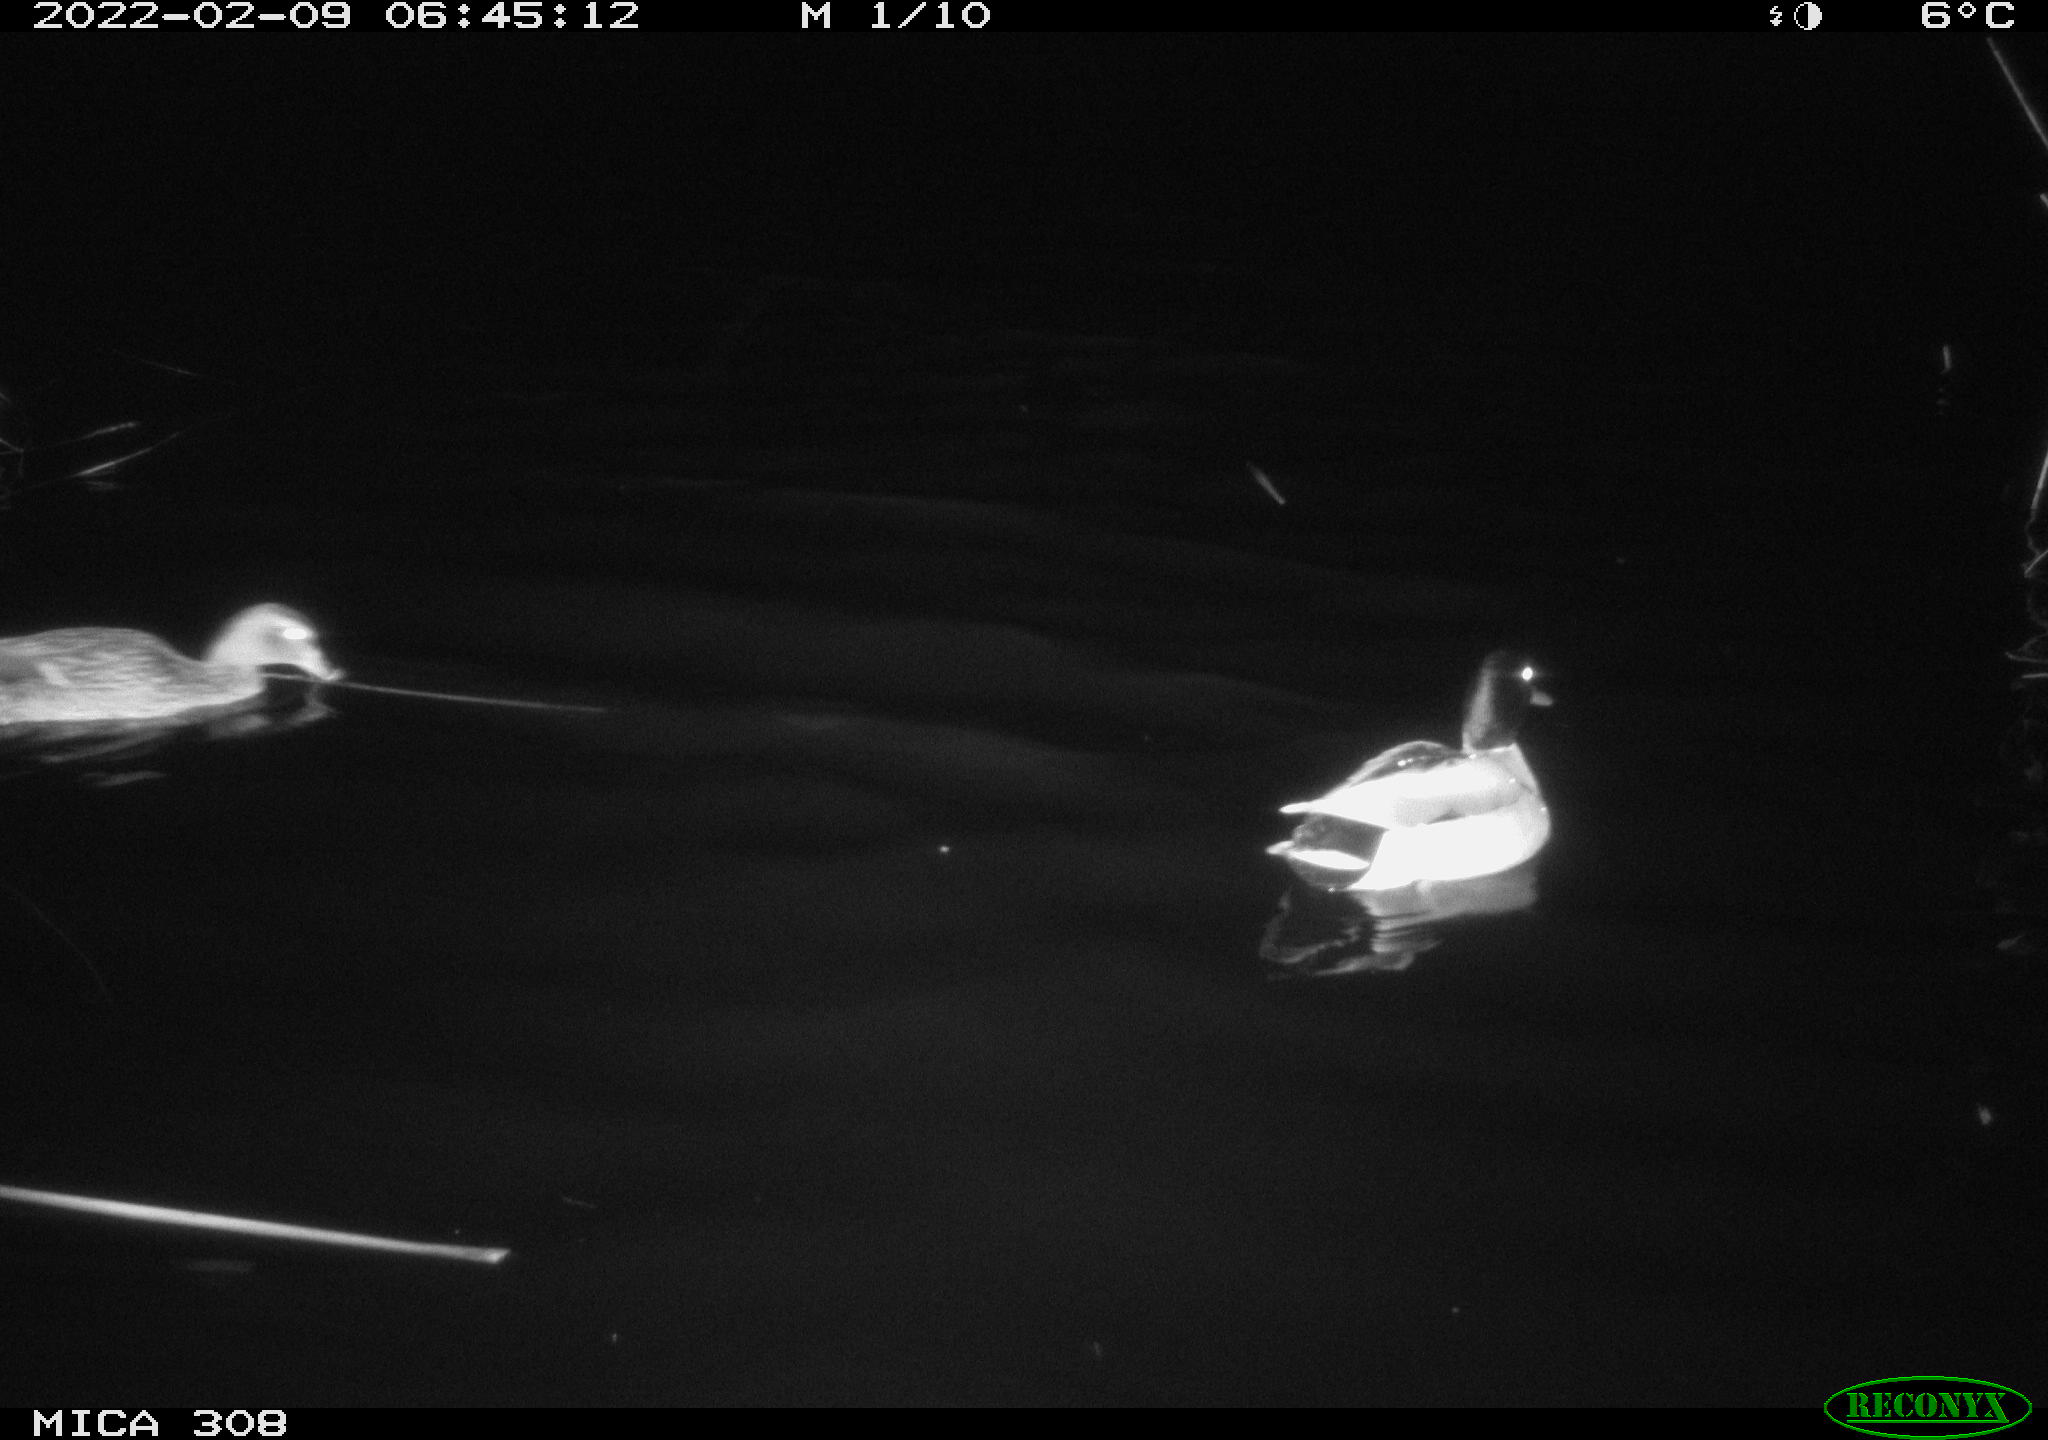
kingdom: Animalia
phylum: Chordata
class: Aves
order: Anseriformes
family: Anatidae
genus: Anas
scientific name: Anas platyrhynchos
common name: Mallard
